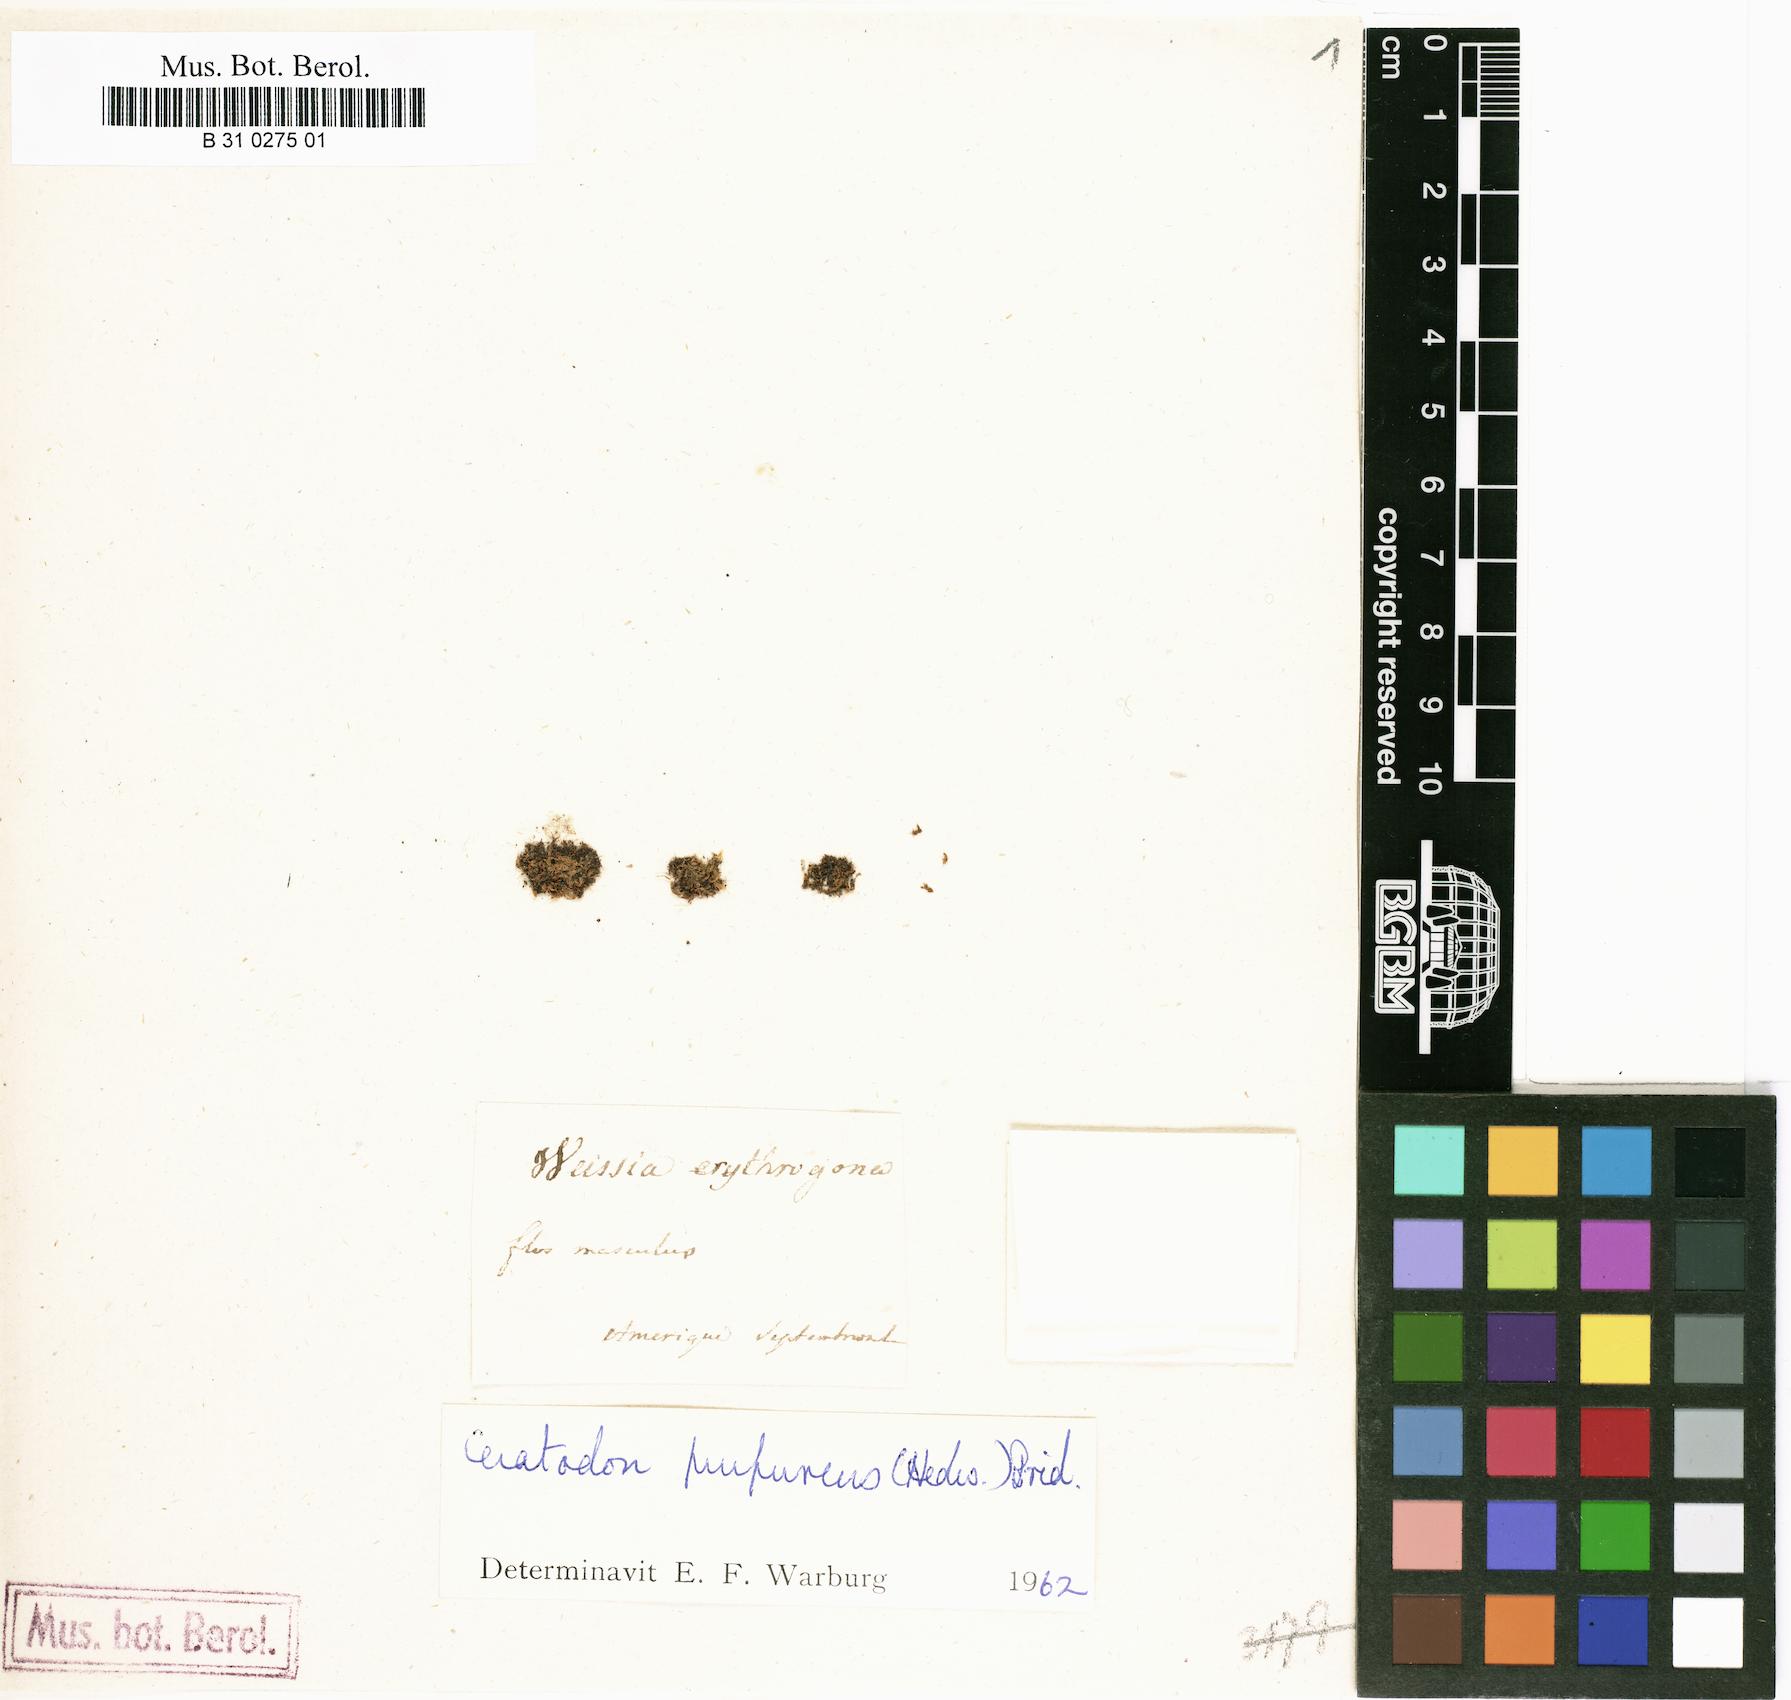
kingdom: Plantae
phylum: Bryophyta
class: Bryopsida
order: Pottiales
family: Pottiaceae
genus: Weissia
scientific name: Weissia erythrogona
